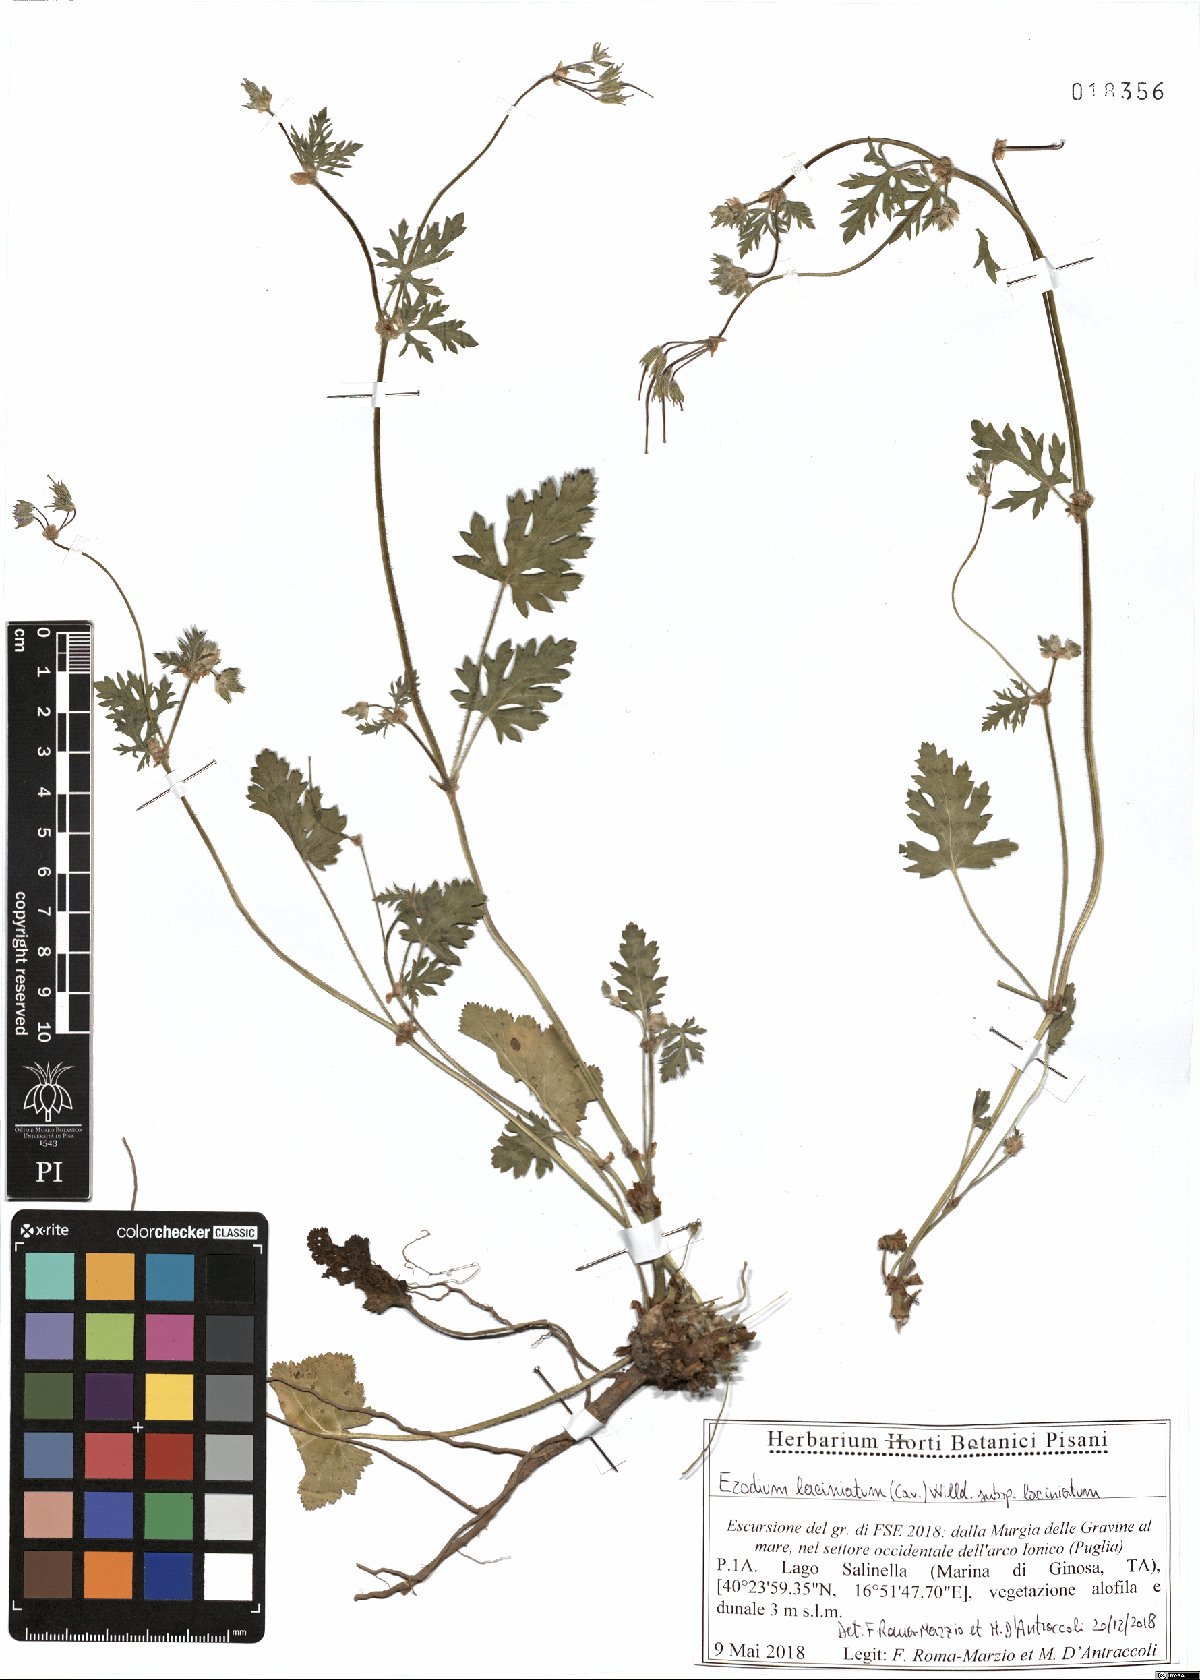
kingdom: Plantae
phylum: Tracheophyta
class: Magnoliopsida
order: Geraniales
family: Geraniaceae
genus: Erodium
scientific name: Erodium laciniatum
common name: Cutleaf stork's bill
